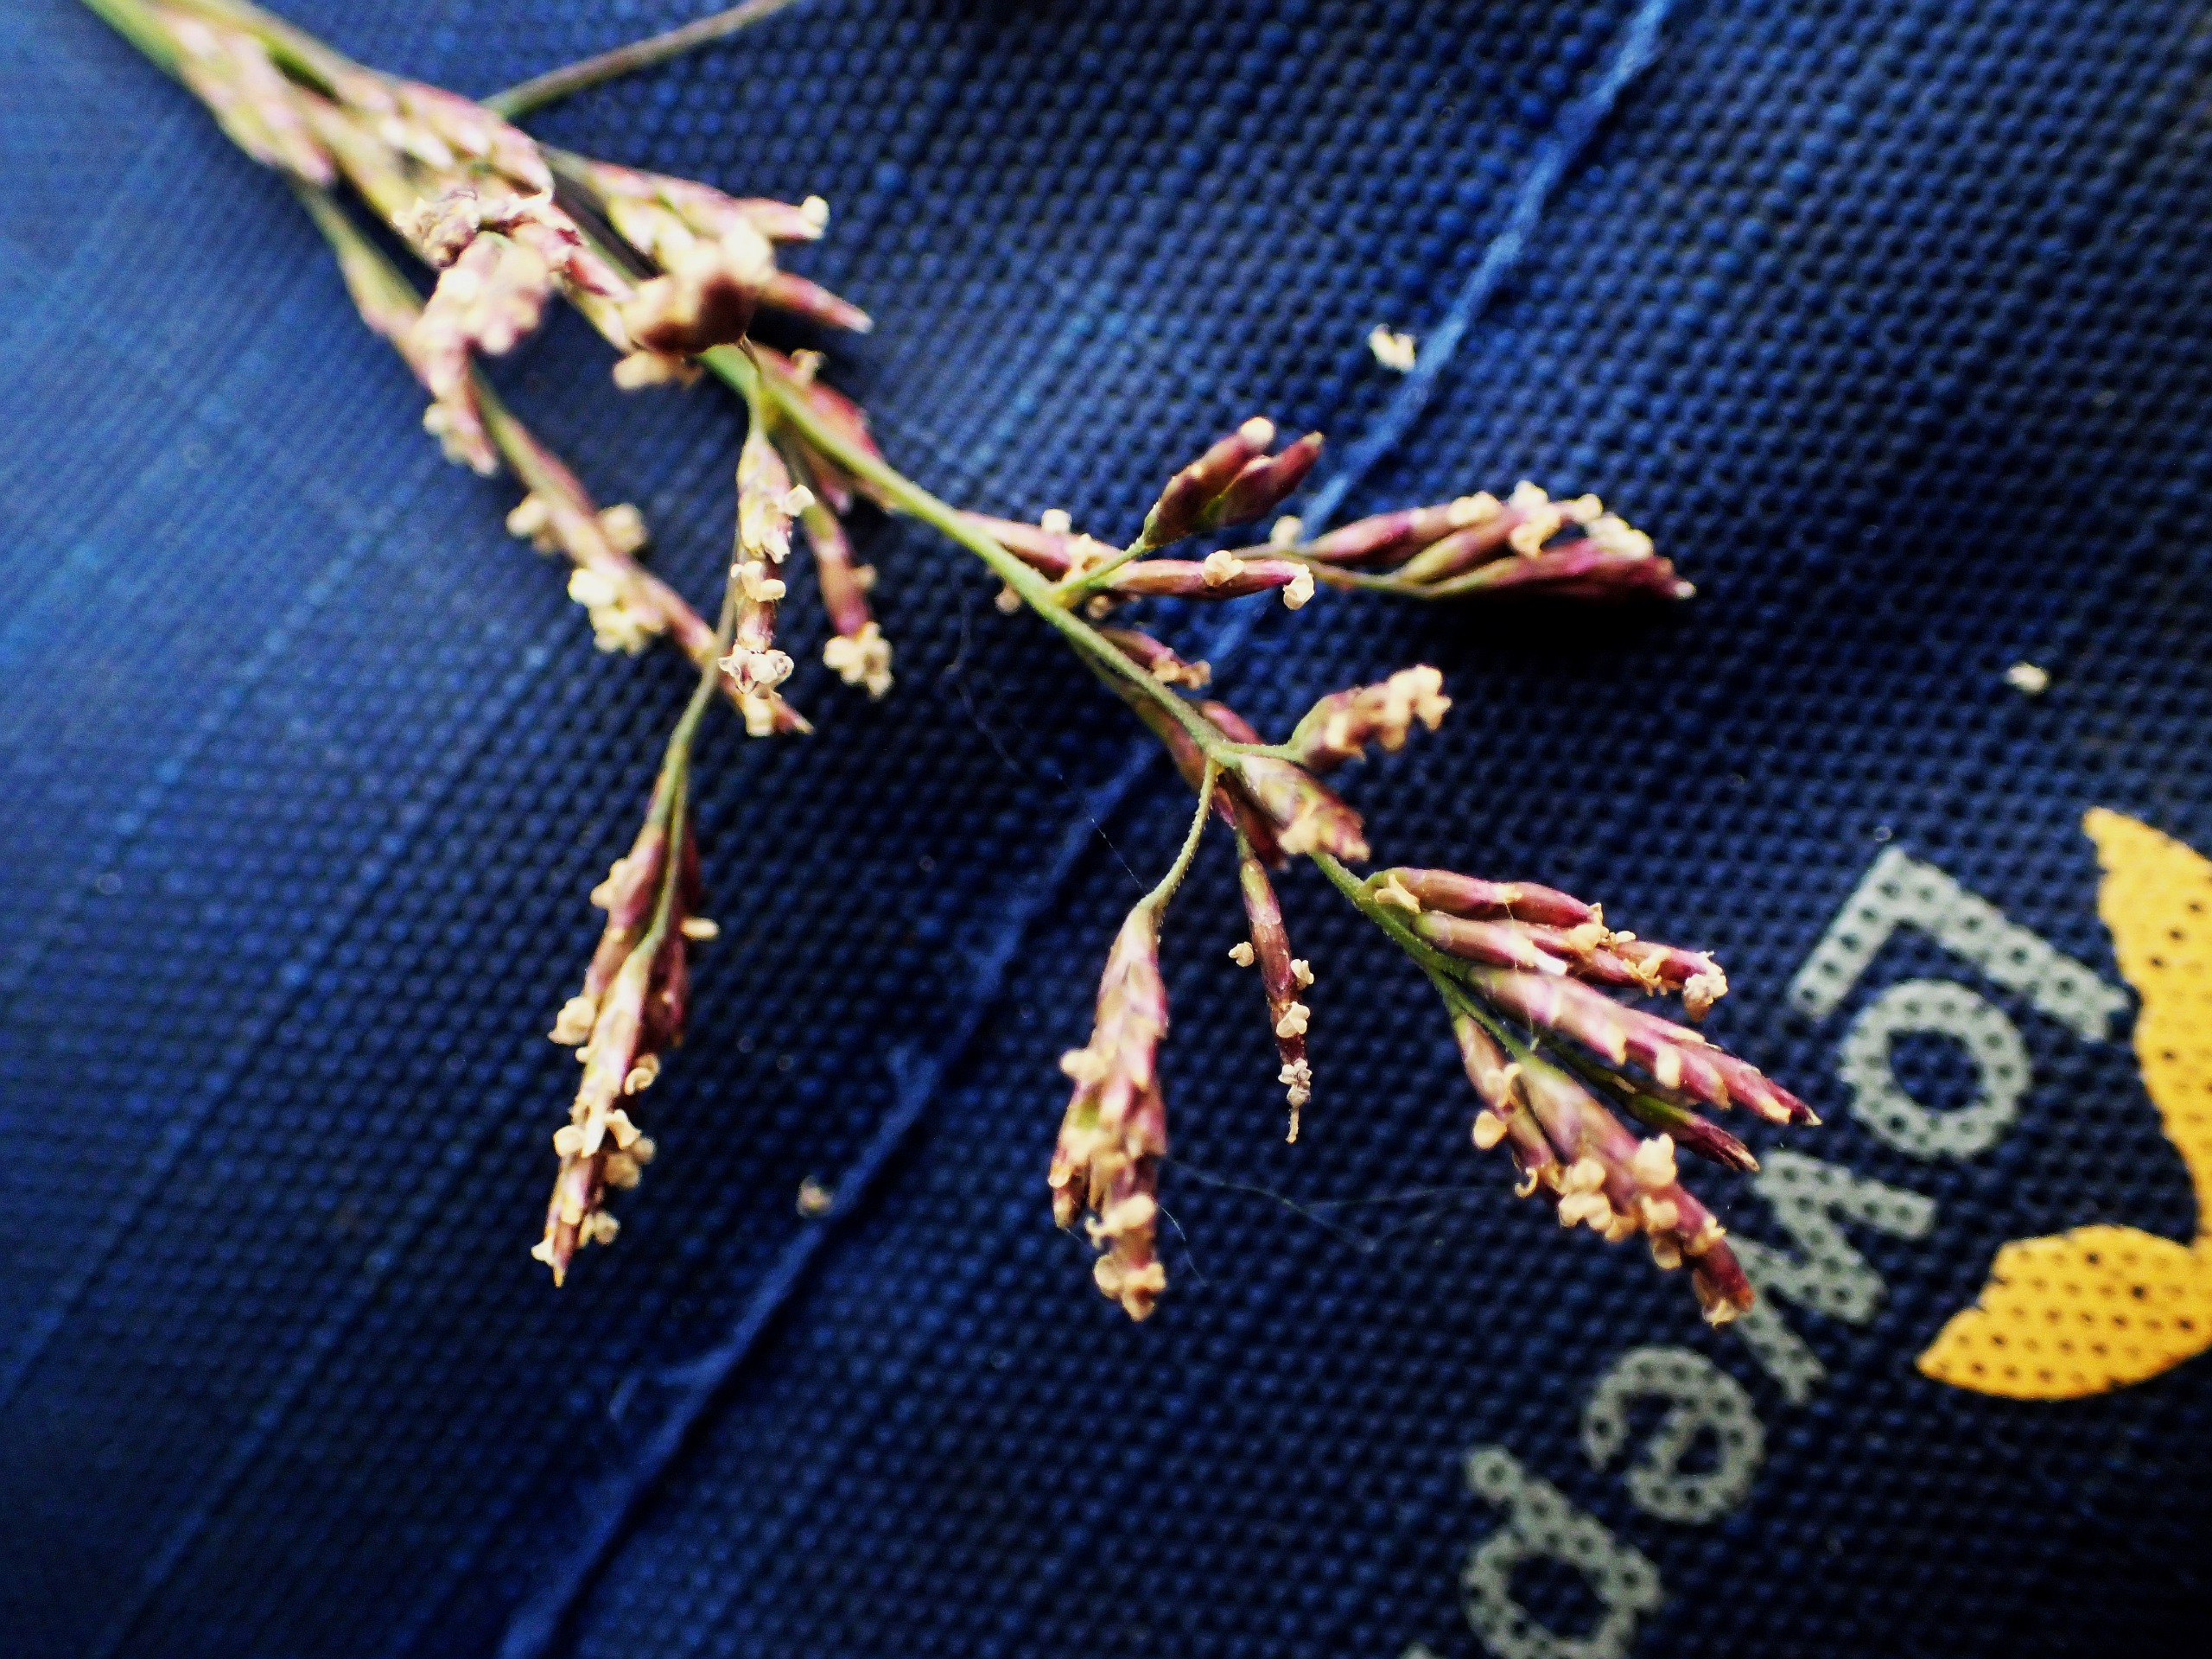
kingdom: Plantae
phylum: Tracheophyta
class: Liliopsida
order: Poales
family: Poaceae
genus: Puccinellia
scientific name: Puccinellia distans
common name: Udspærret annelgræs
